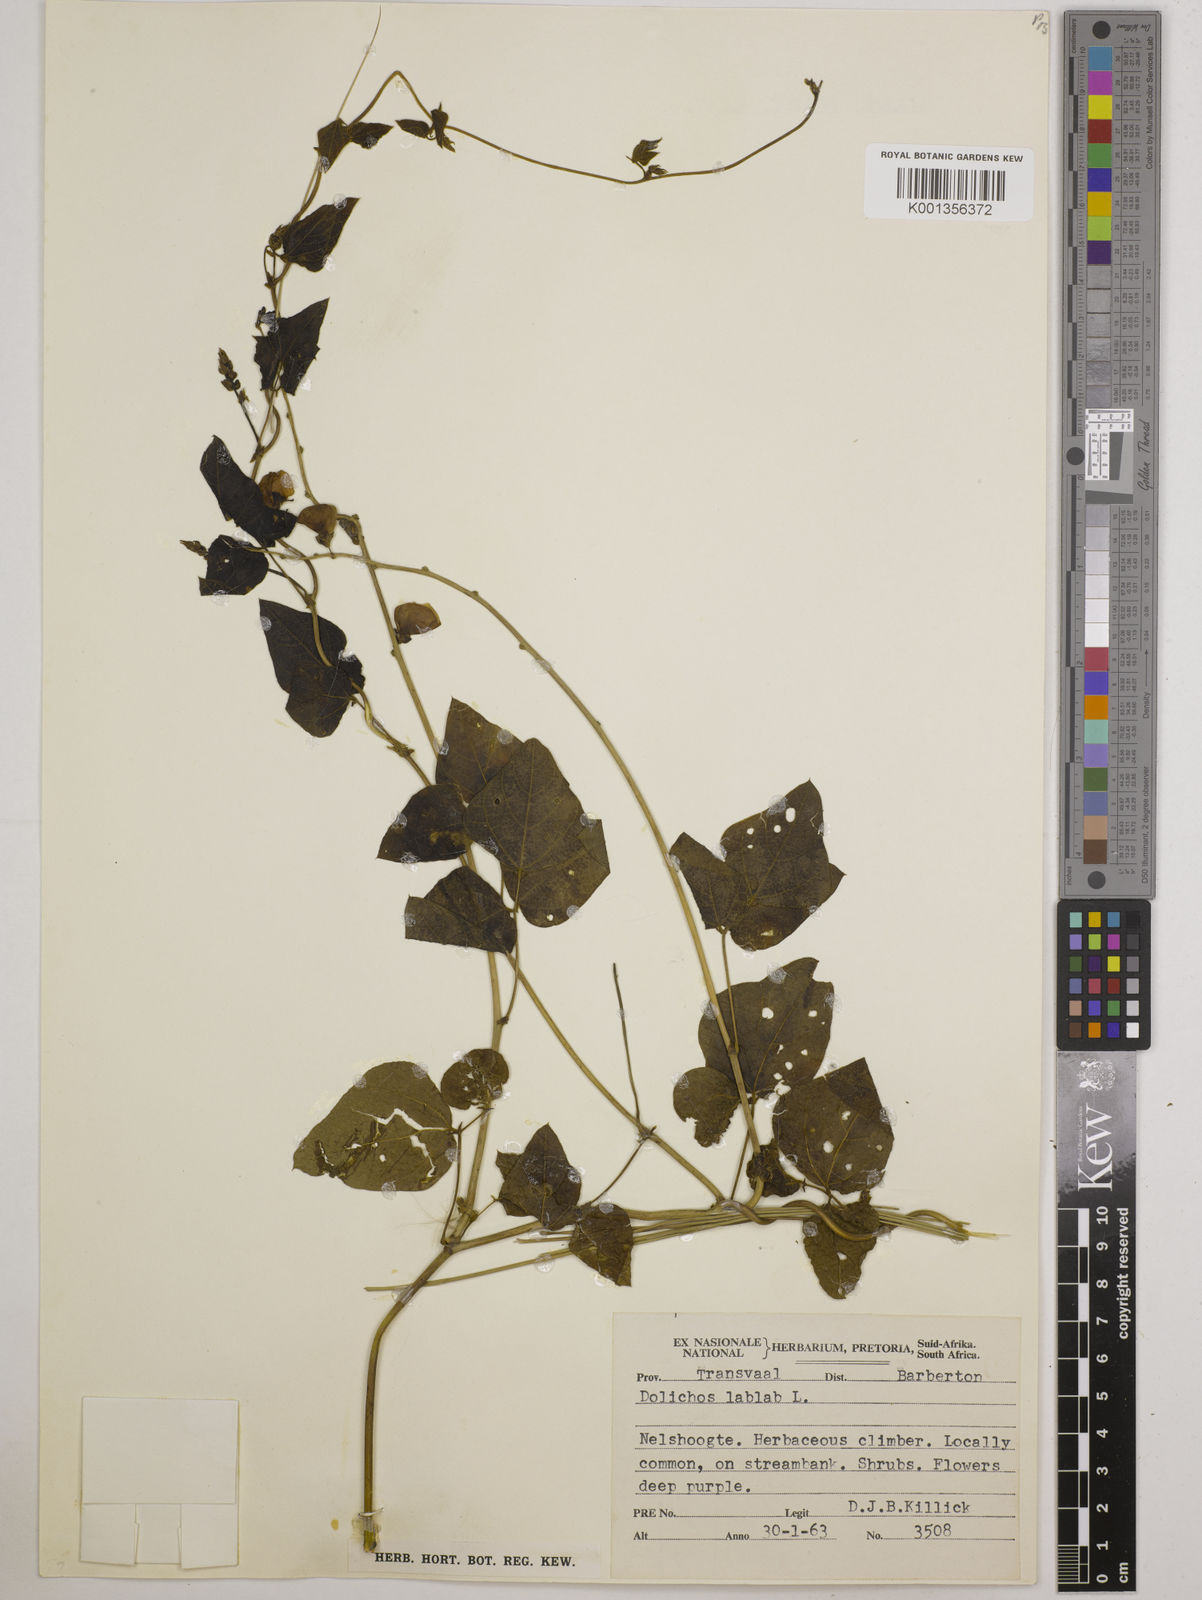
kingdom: Plantae
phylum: Tracheophyta
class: Magnoliopsida
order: Fabales
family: Fabaceae
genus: Lablab
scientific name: Lablab purpureus
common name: Lablab-bean
